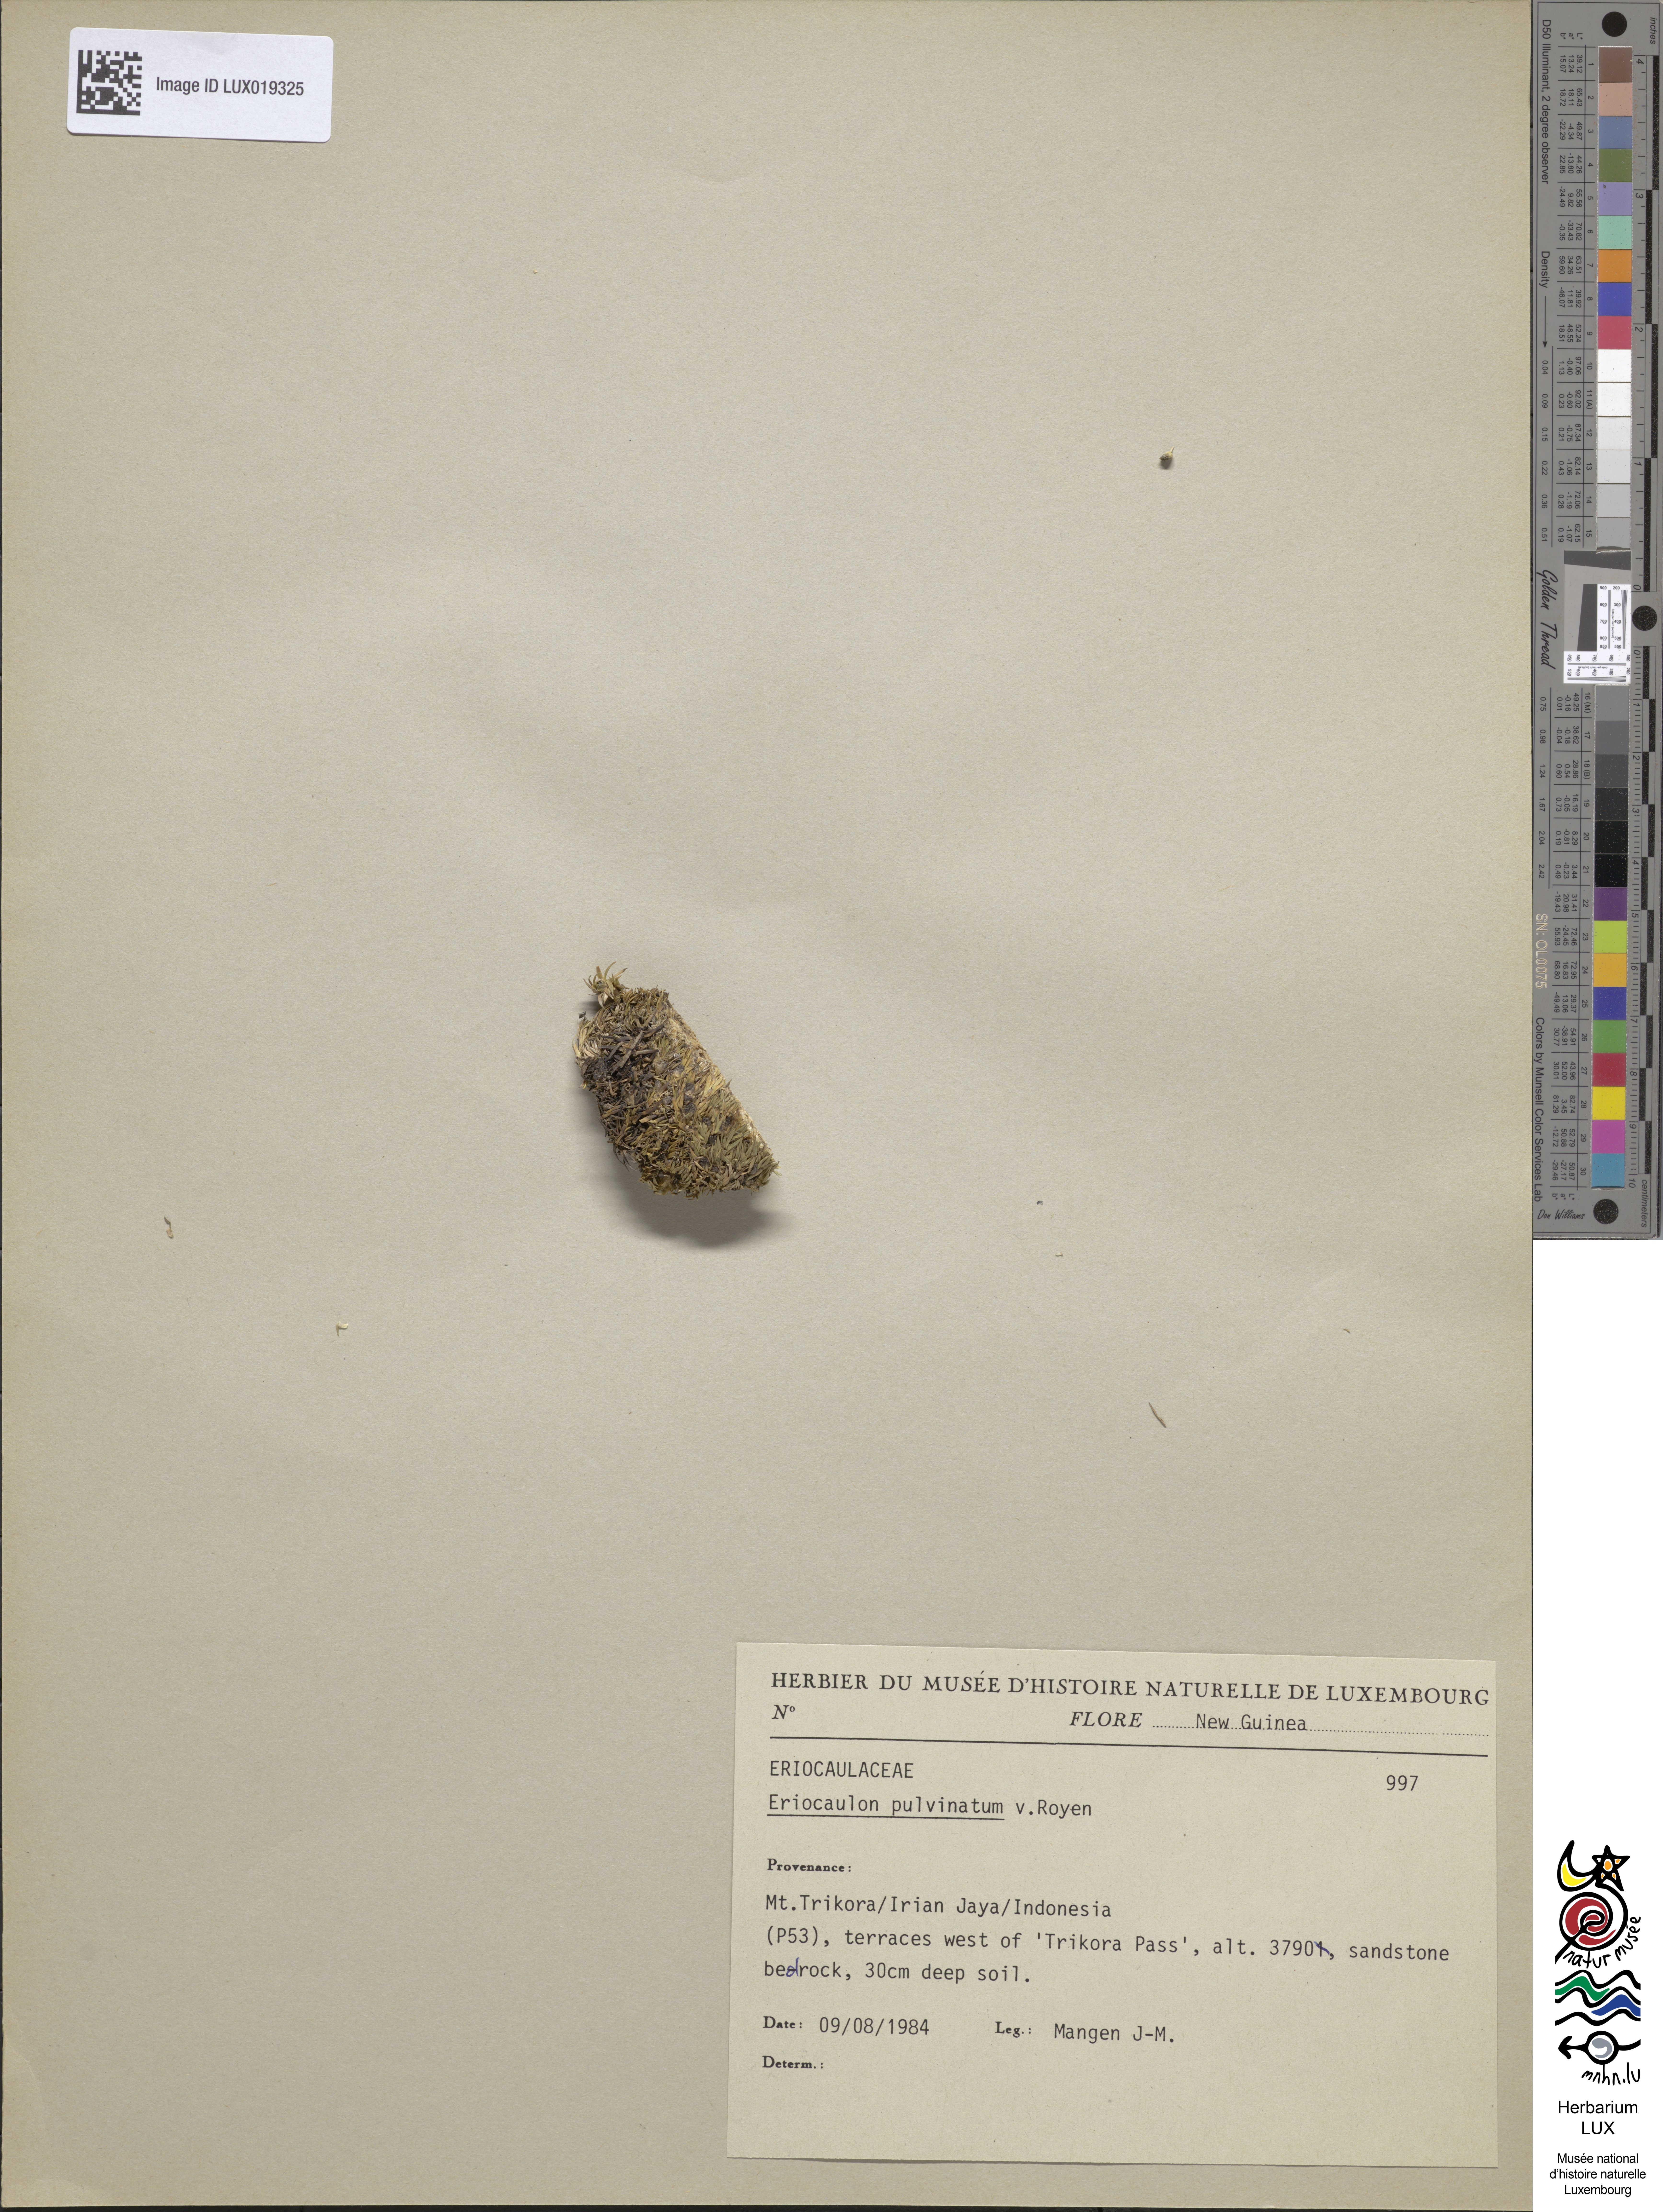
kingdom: Plantae
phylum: Tracheophyta
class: Liliopsida
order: Poales
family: Eriocaulaceae
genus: Eriocaulon
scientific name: Eriocaulon pulvinatum
